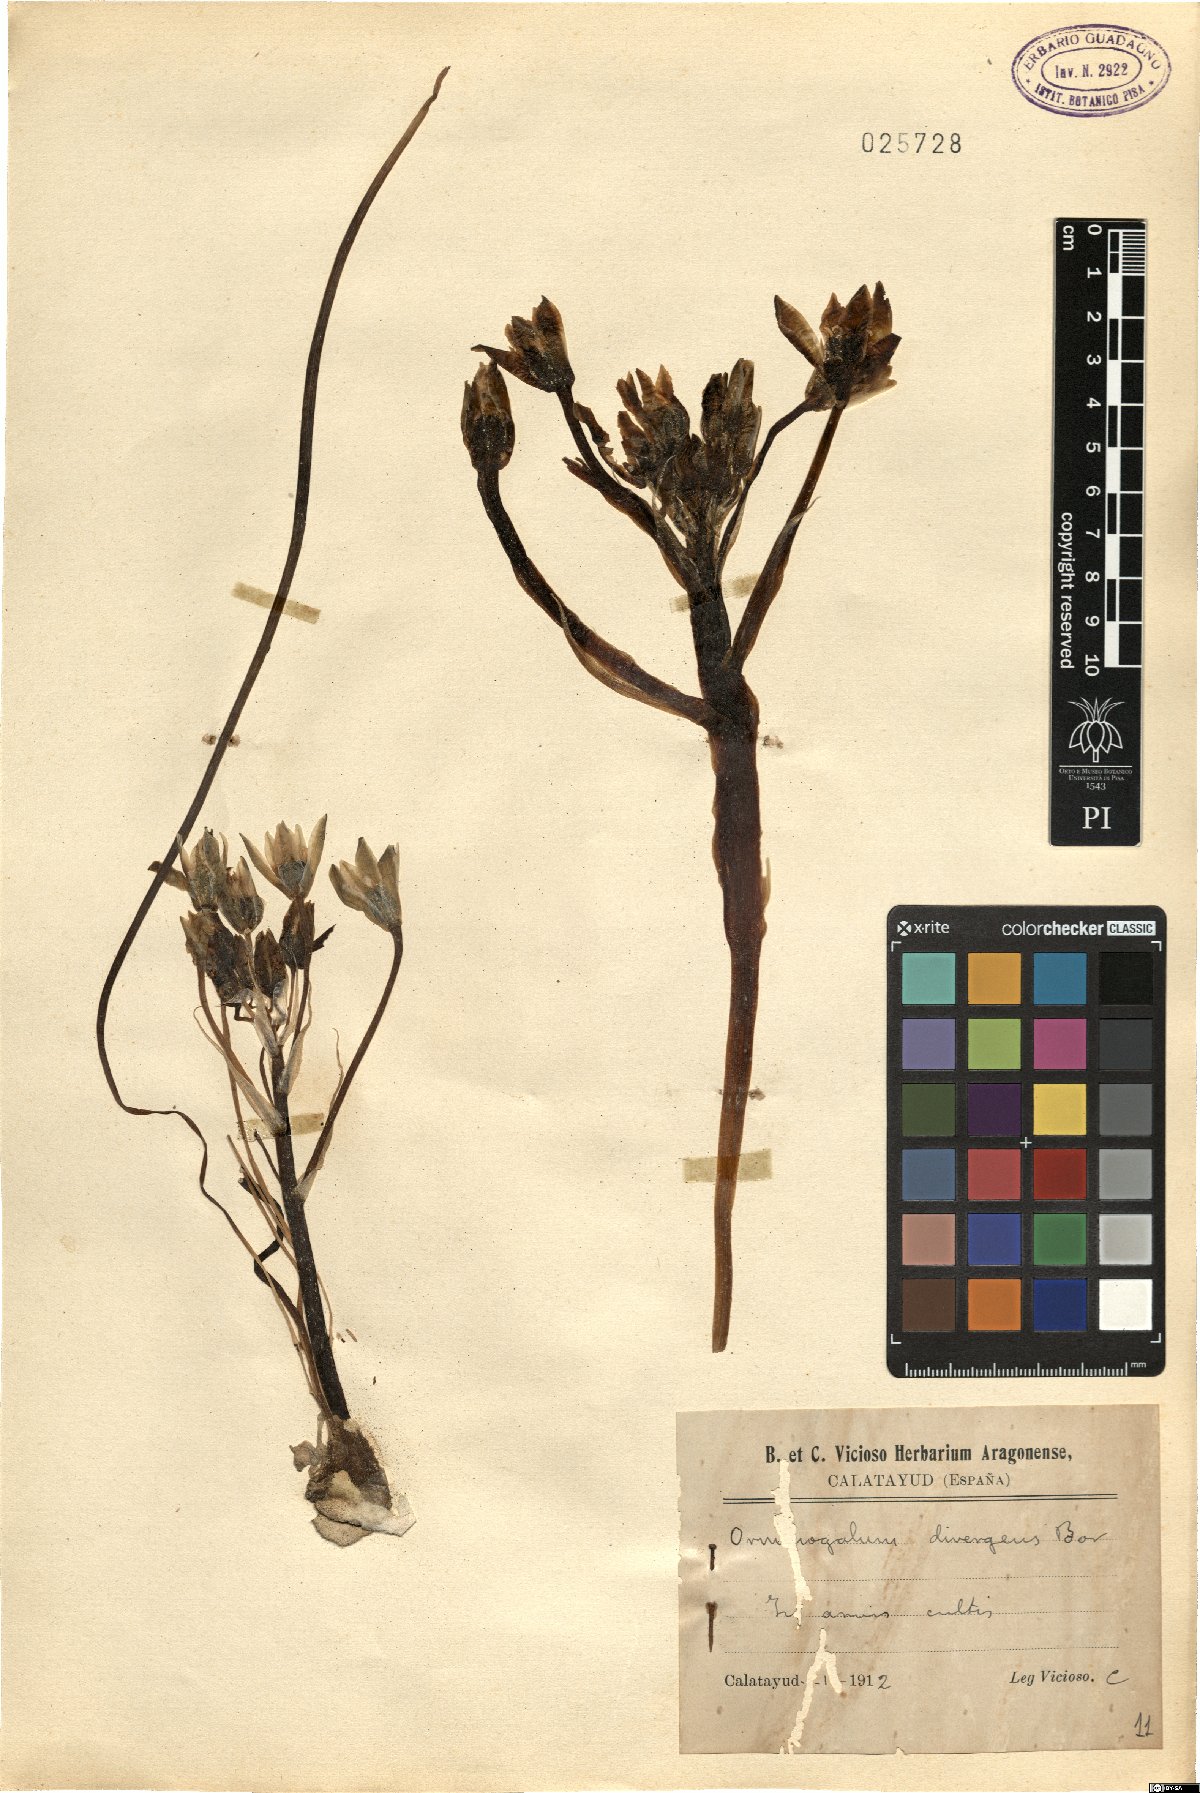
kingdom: Plantae
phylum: Tracheophyta
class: Liliopsida
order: Asparagales
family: Asparagaceae
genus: Ornithogalum
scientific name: Ornithogalum divergens
